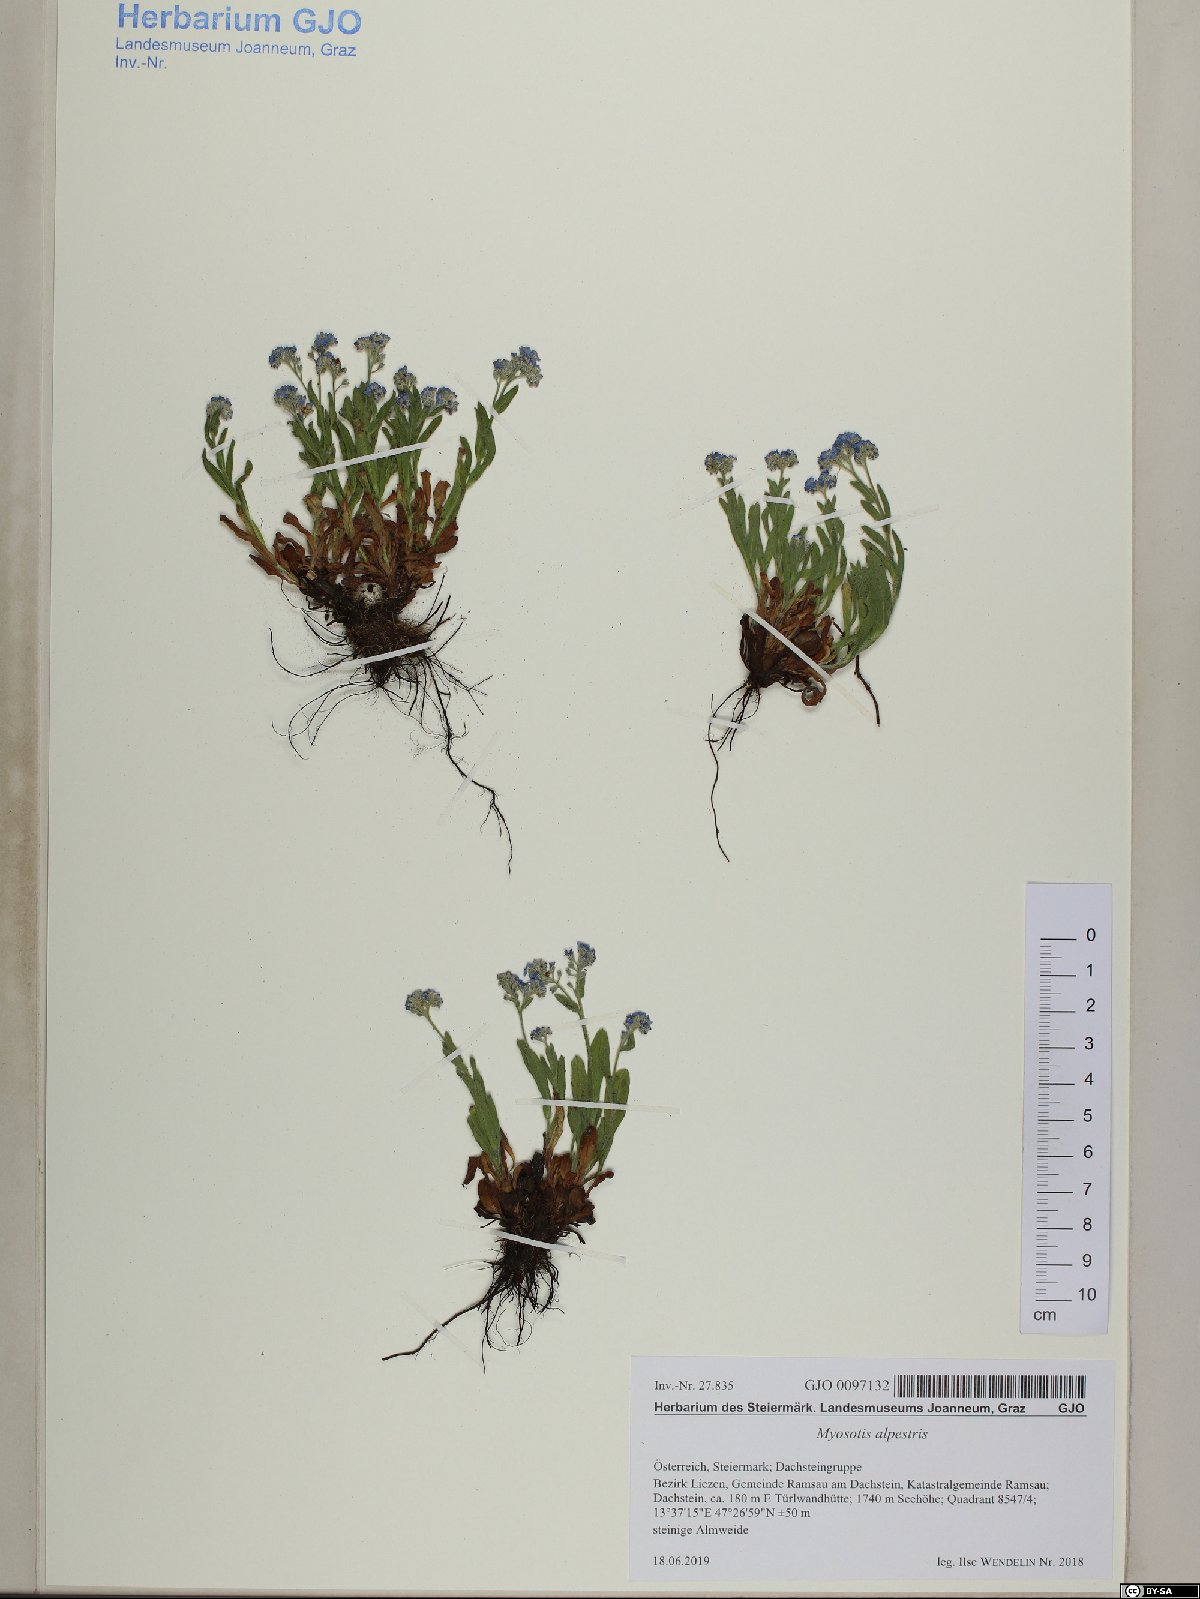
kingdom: Plantae
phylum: Tracheophyta
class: Magnoliopsida
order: Boraginales
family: Boraginaceae
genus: Myosotis
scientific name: Myosotis alpestris
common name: Alpine forget-me-not
